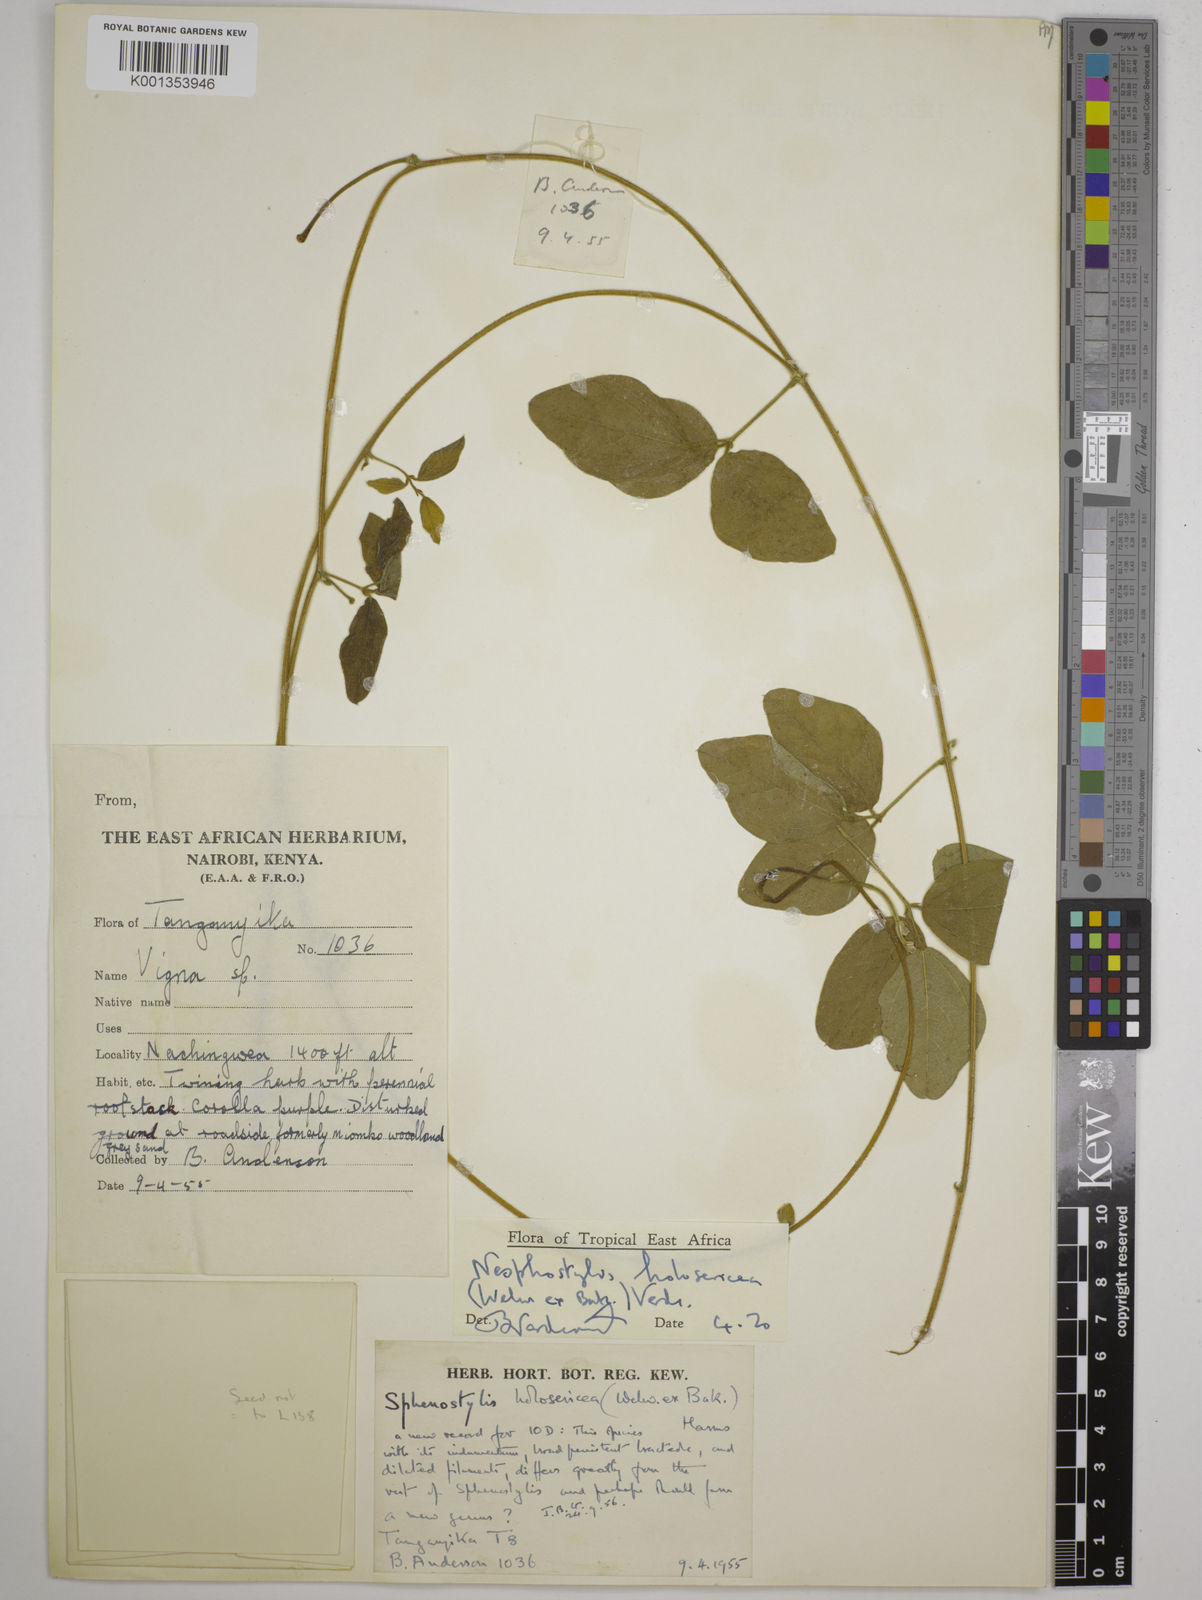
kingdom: Plantae
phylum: Tracheophyta
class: Magnoliopsida
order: Fabales
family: Fabaceae
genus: Nesphostylis
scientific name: Nesphostylis holosericea
